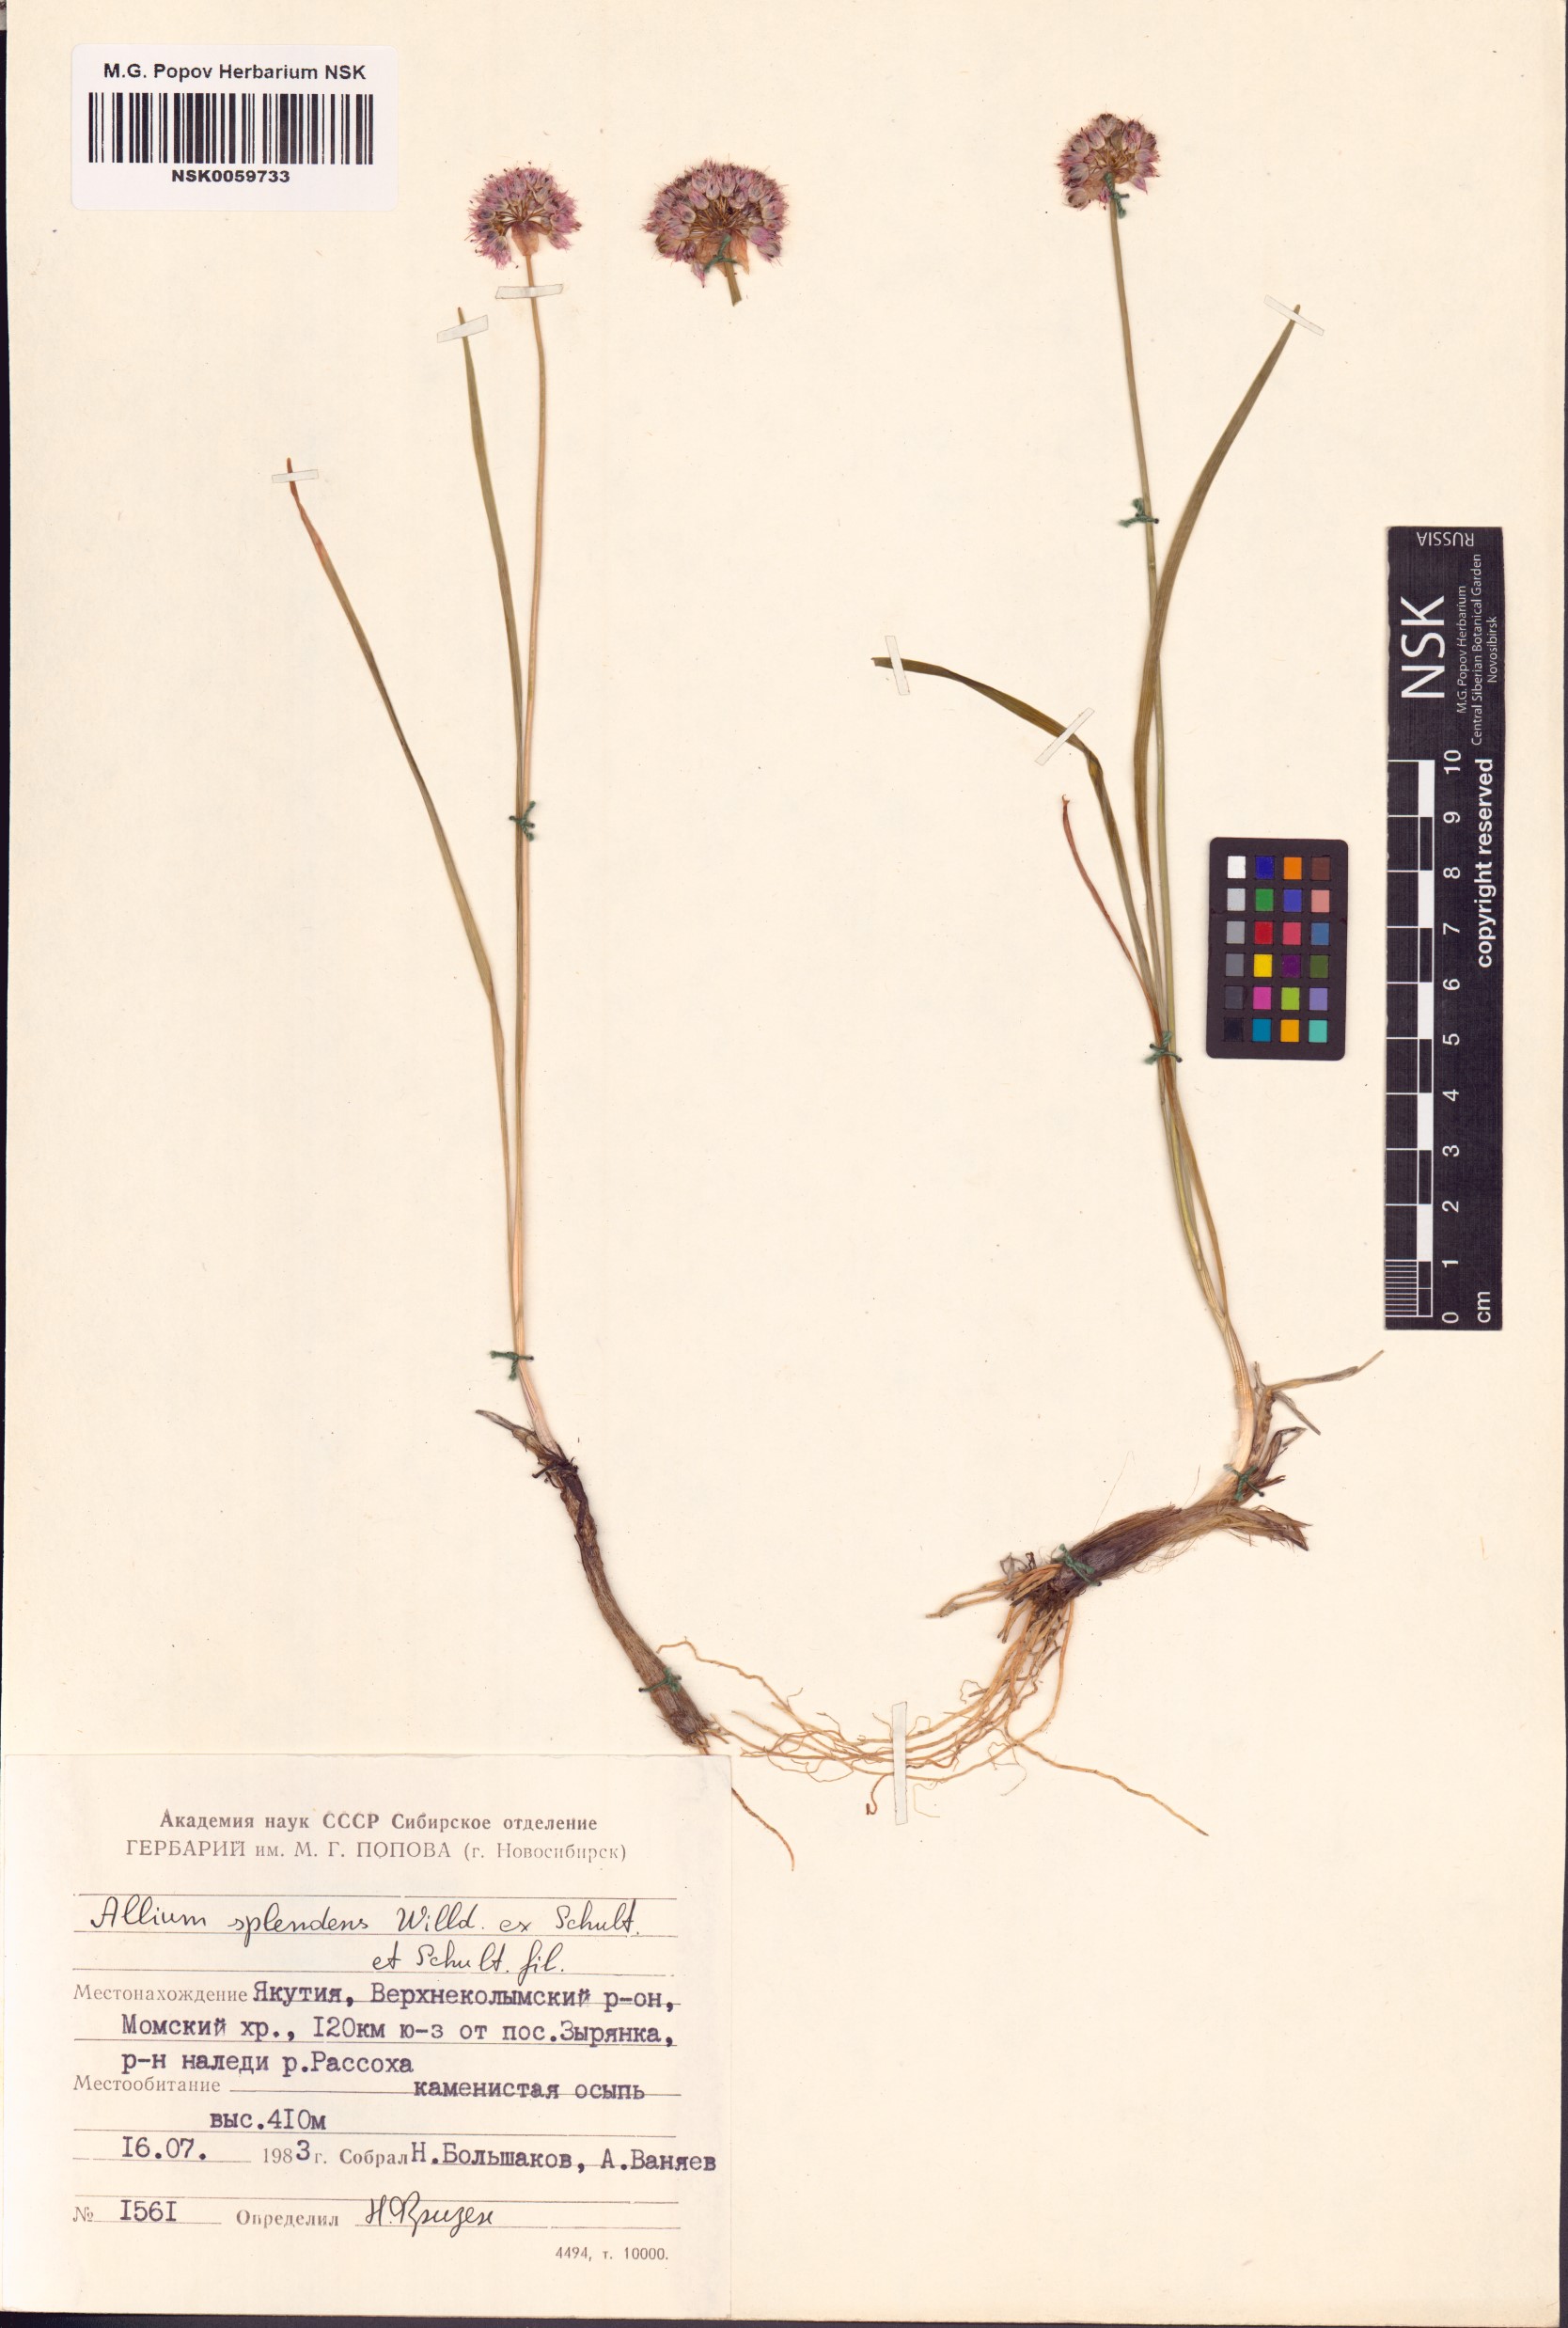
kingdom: Plantae
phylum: Tracheophyta
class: Liliopsida
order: Asparagales
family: Amaryllidaceae
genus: Allium
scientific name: Allium splendens
